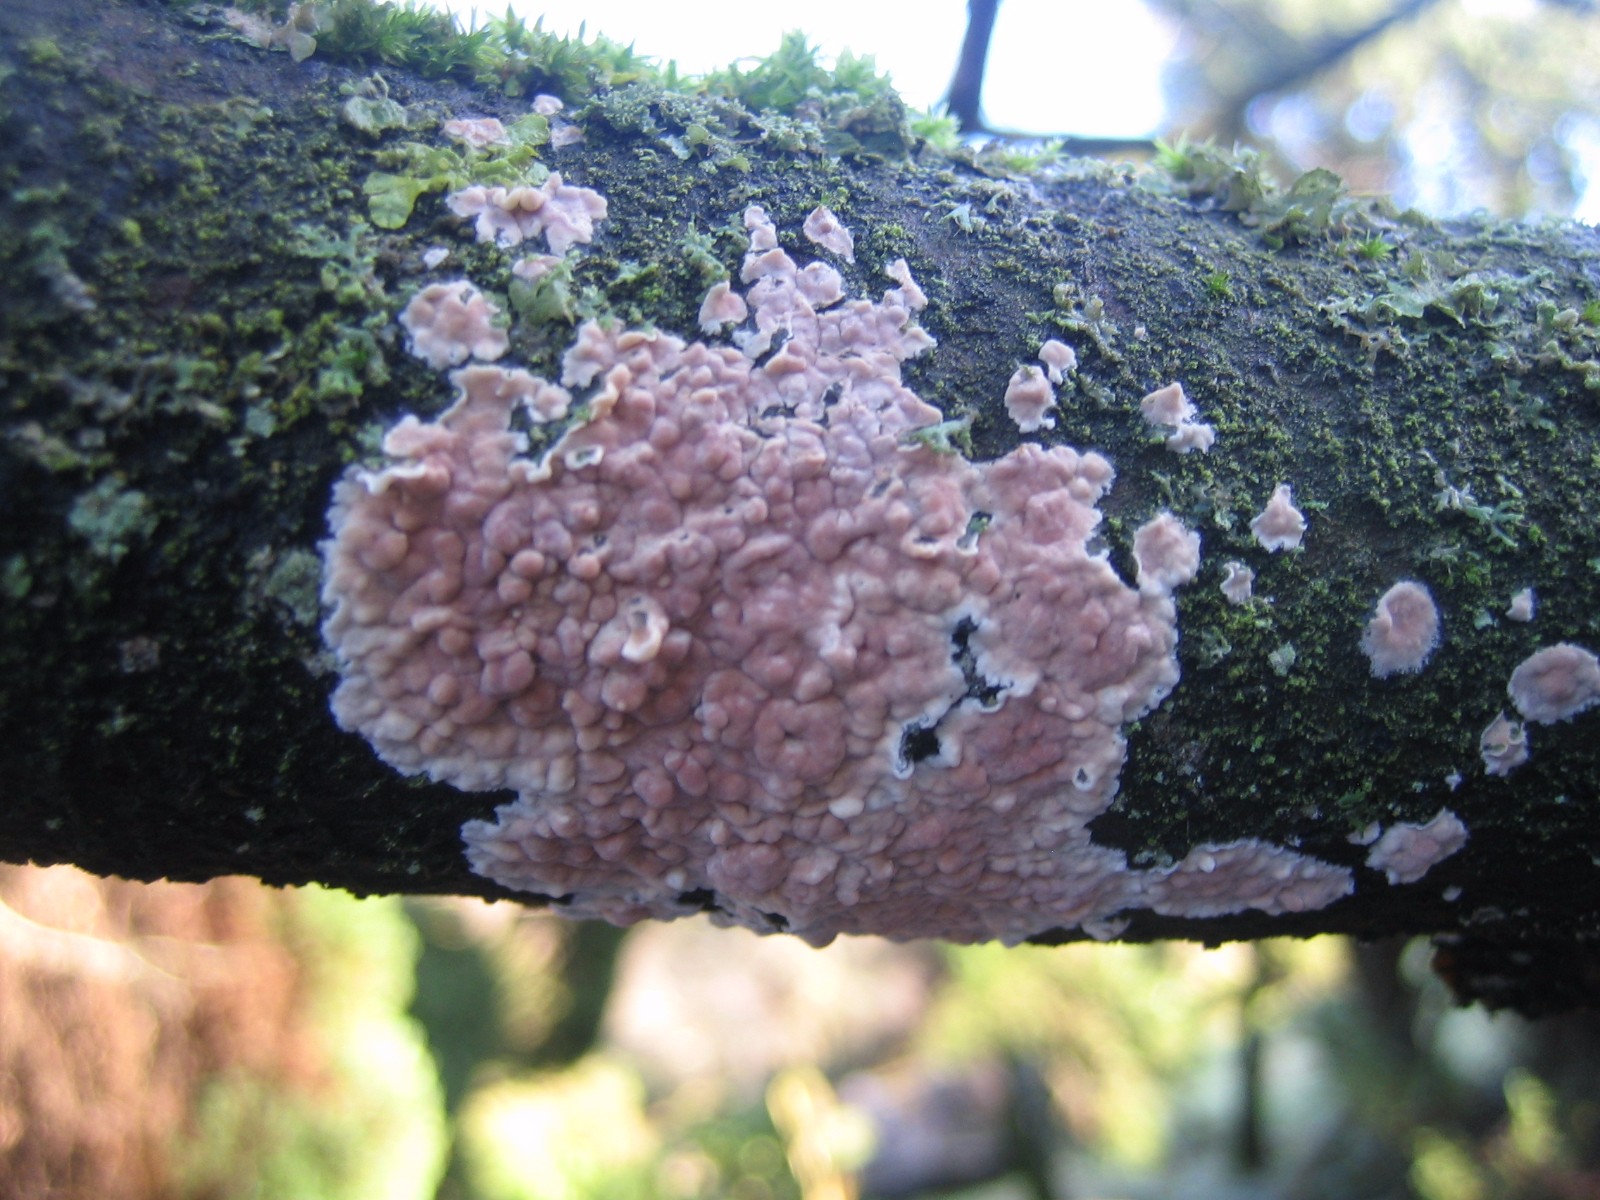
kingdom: Fungi
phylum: Basidiomycota
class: Agaricomycetes
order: Agaricales
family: Physalacriaceae
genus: Cylindrobasidium
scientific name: Cylindrobasidium evolvens
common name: sprækkehinde
